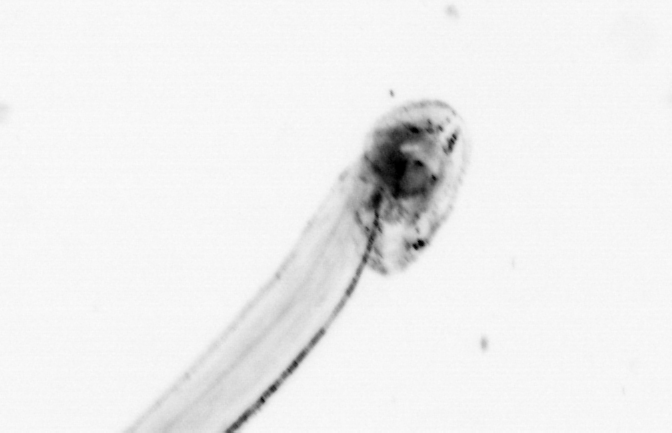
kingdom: Animalia
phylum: Chordata
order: Copelata
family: Fritillariidae
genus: Appendicularia
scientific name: Appendicularia
